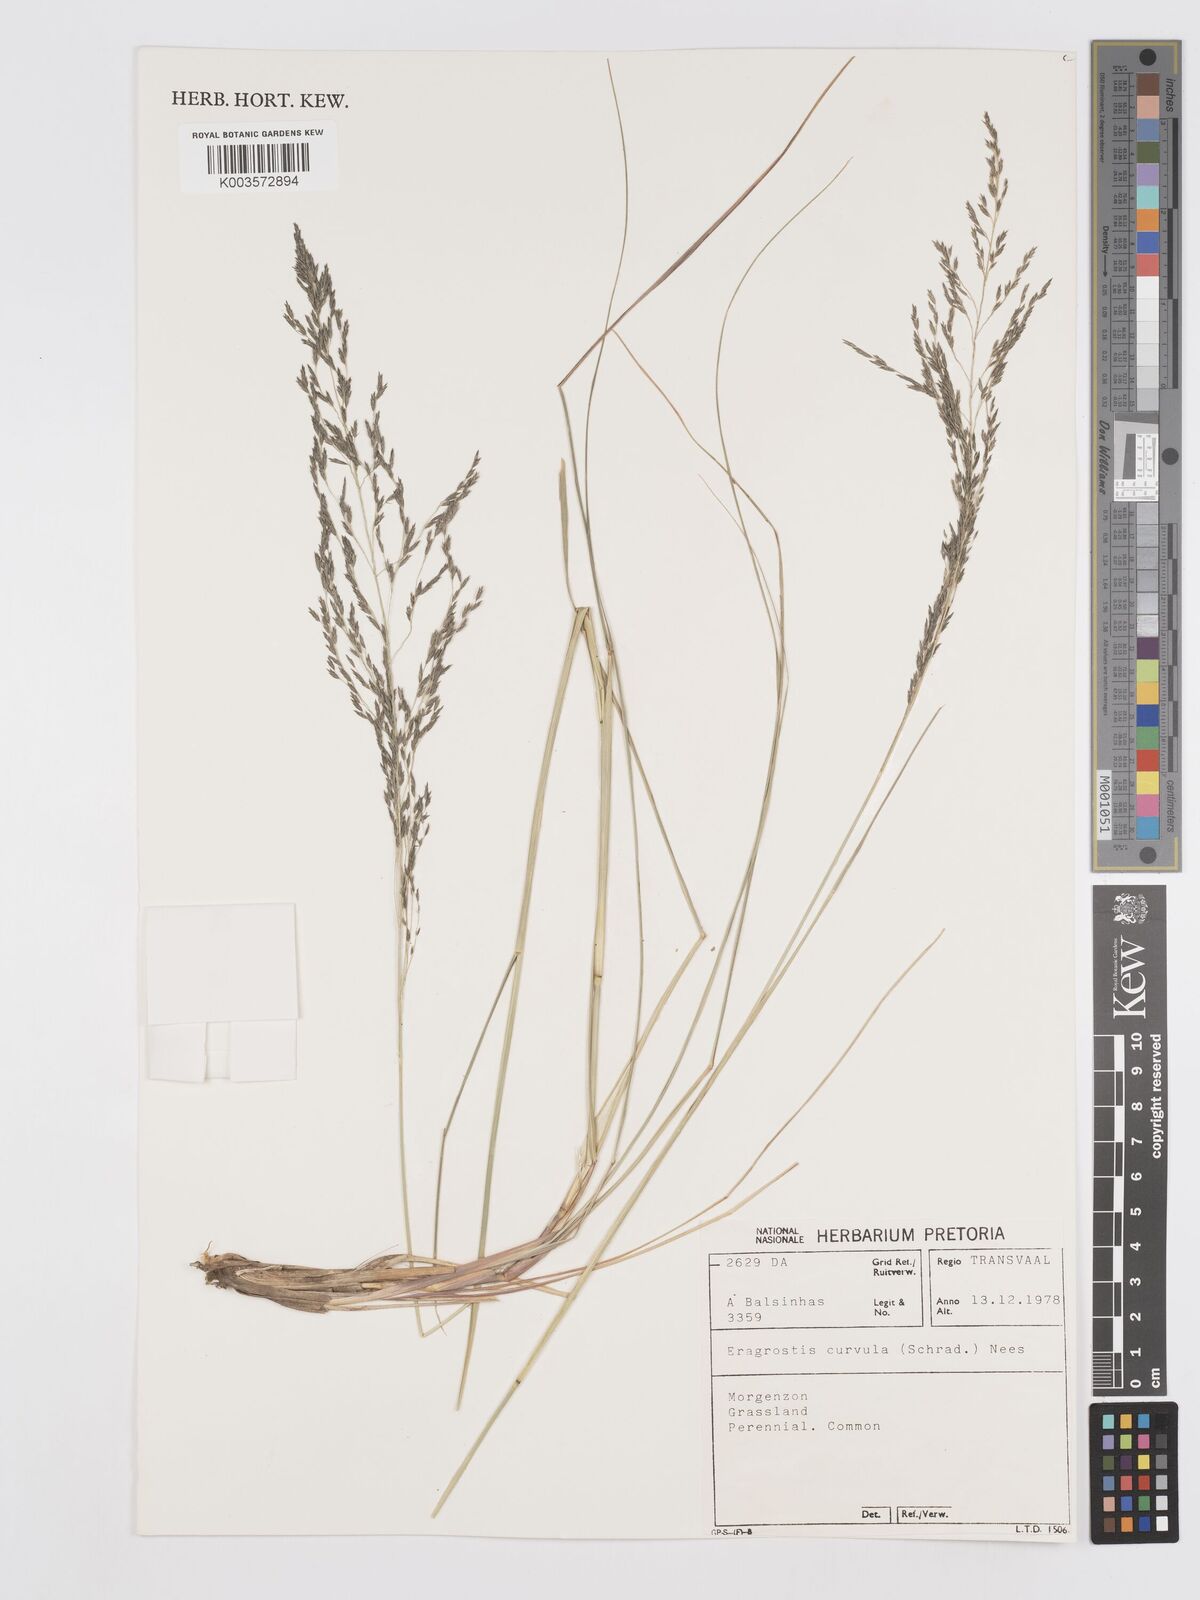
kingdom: Plantae
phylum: Tracheophyta
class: Liliopsida
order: Poales
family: Poaceae
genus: Eragrostis
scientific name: Eragrostis curvula
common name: African love-grass
